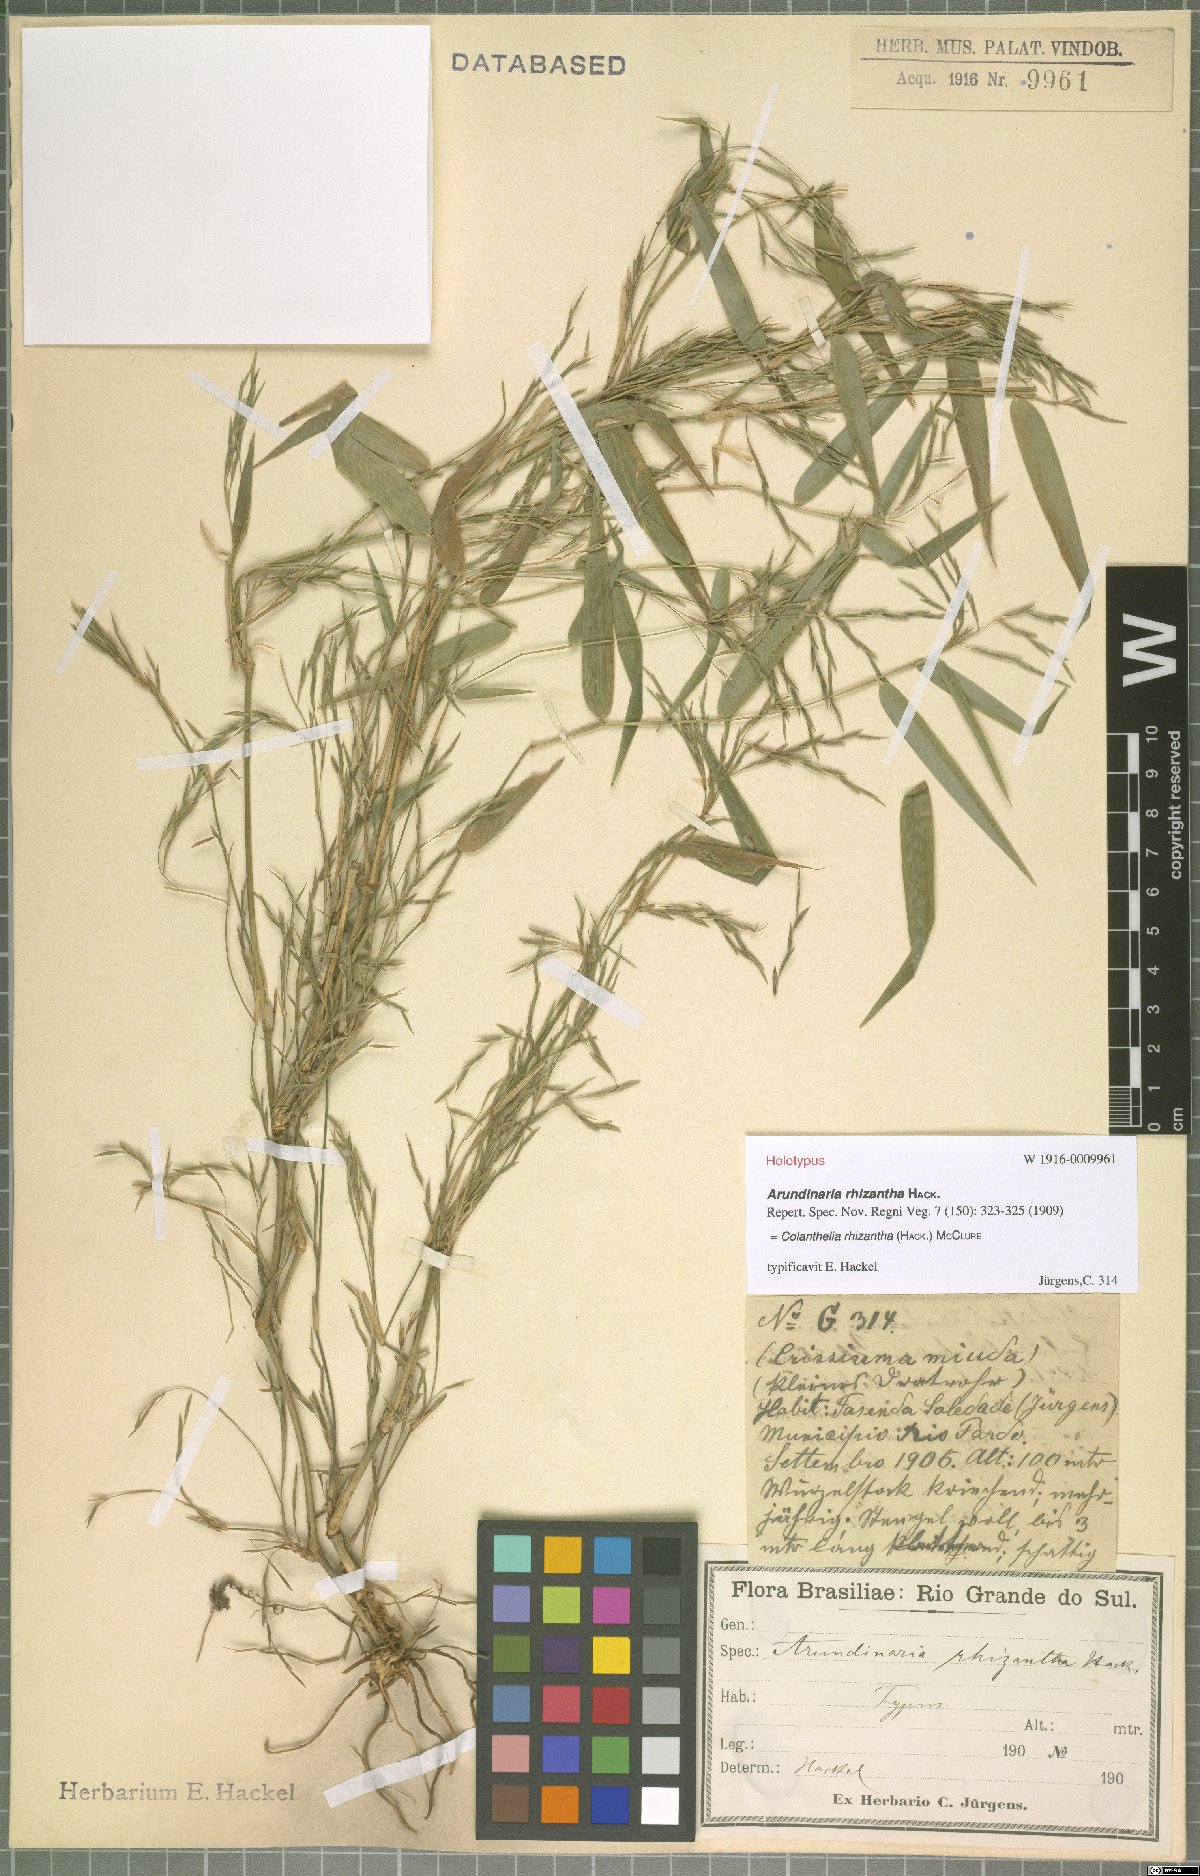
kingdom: Plantae
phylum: Tracheophyta
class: Liliopsida
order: Poales
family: Poaceae
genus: Colanthelia
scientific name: Colanthelia rhizantha
